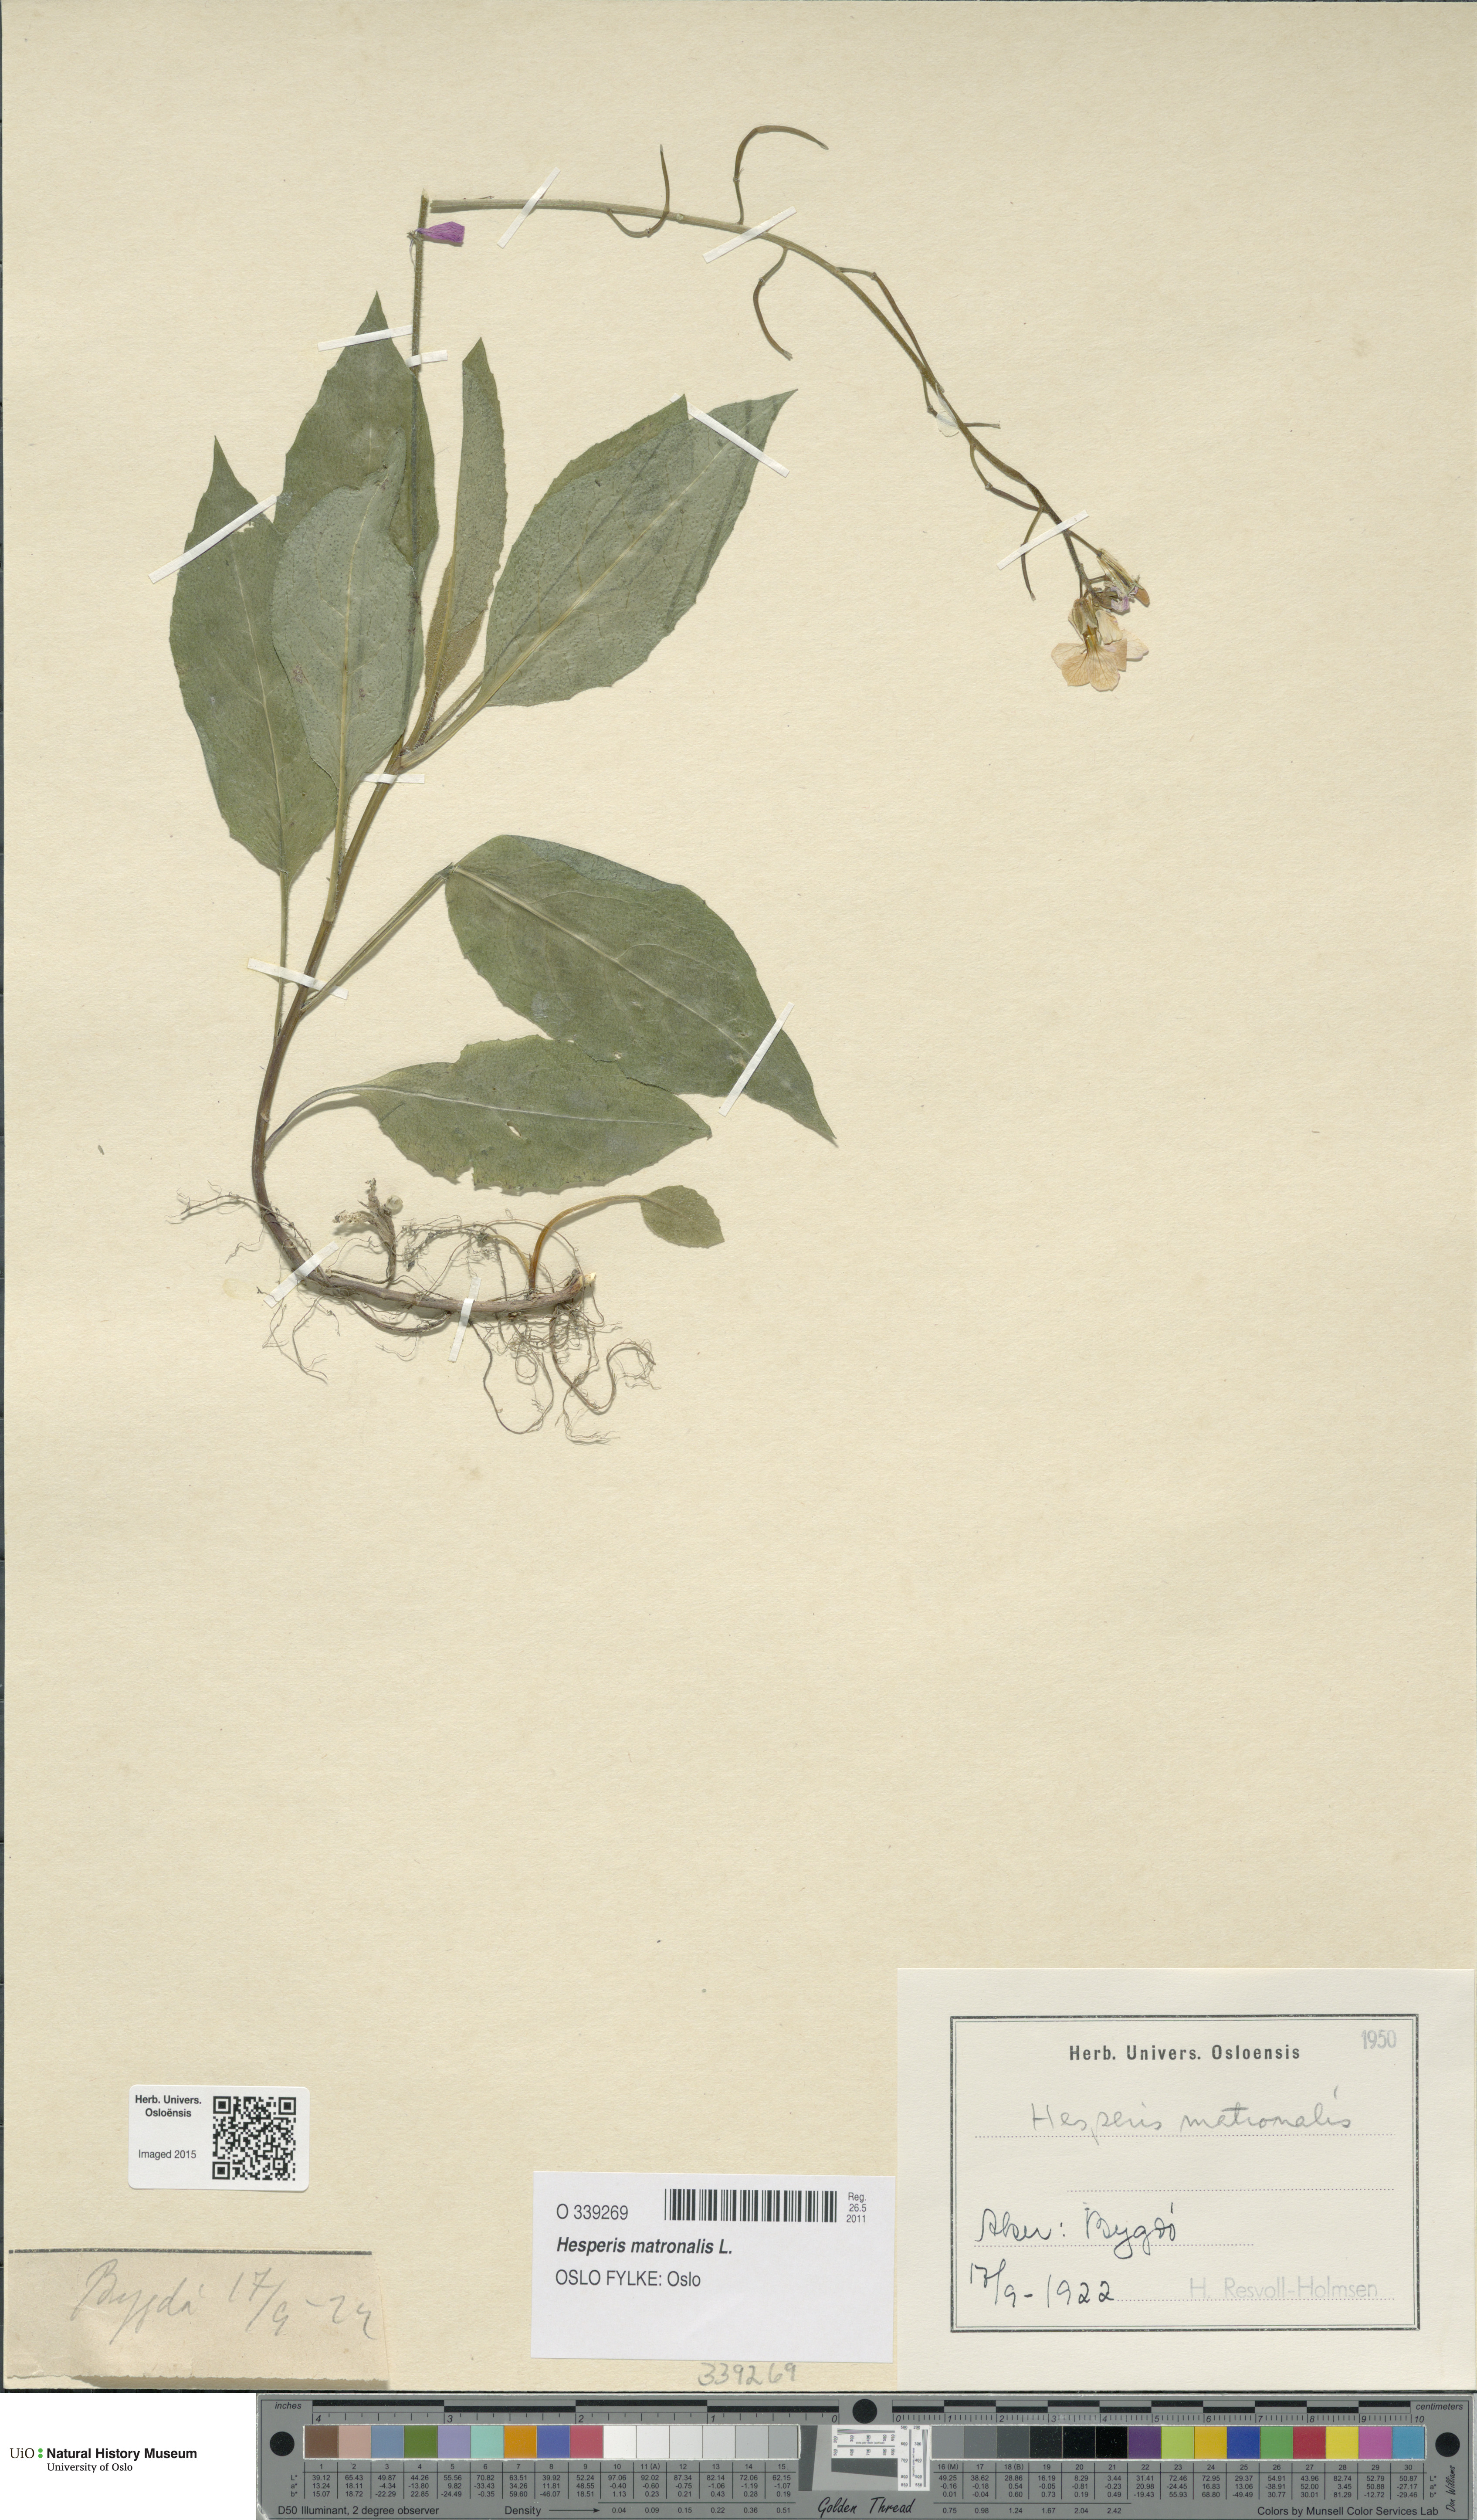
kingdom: Plantae
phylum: Tracheophyta
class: Magnoliopsida
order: Brassicales
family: Brassicaceae
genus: Hesperis
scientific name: Hesperis matronalis
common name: Dame's-violet
